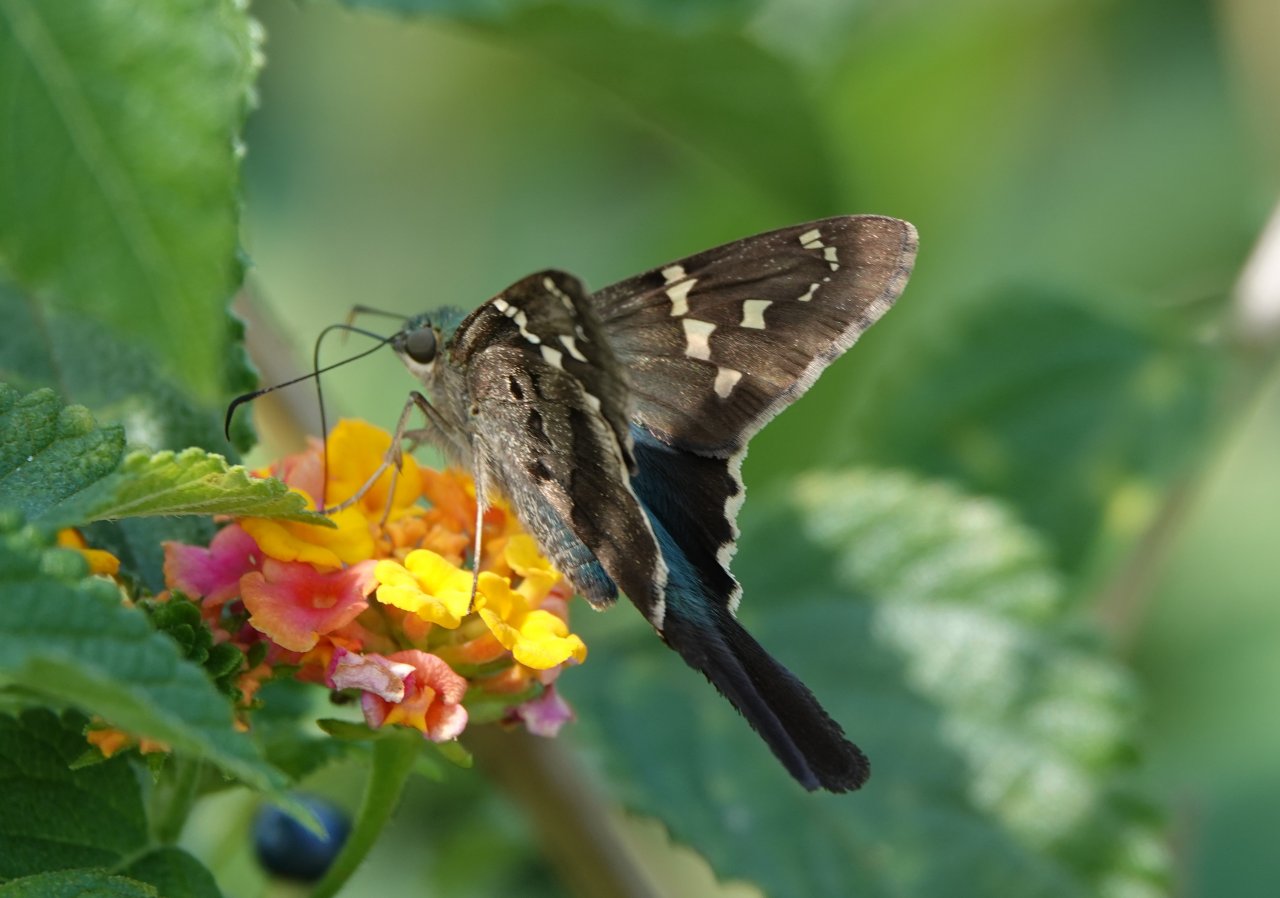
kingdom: Animalia
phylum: Arthropoda
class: Insecta
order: Lepidoptera
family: Hesperiidae
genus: Urbanus
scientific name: Urbanus proteus
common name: Long-tailed Skipper
